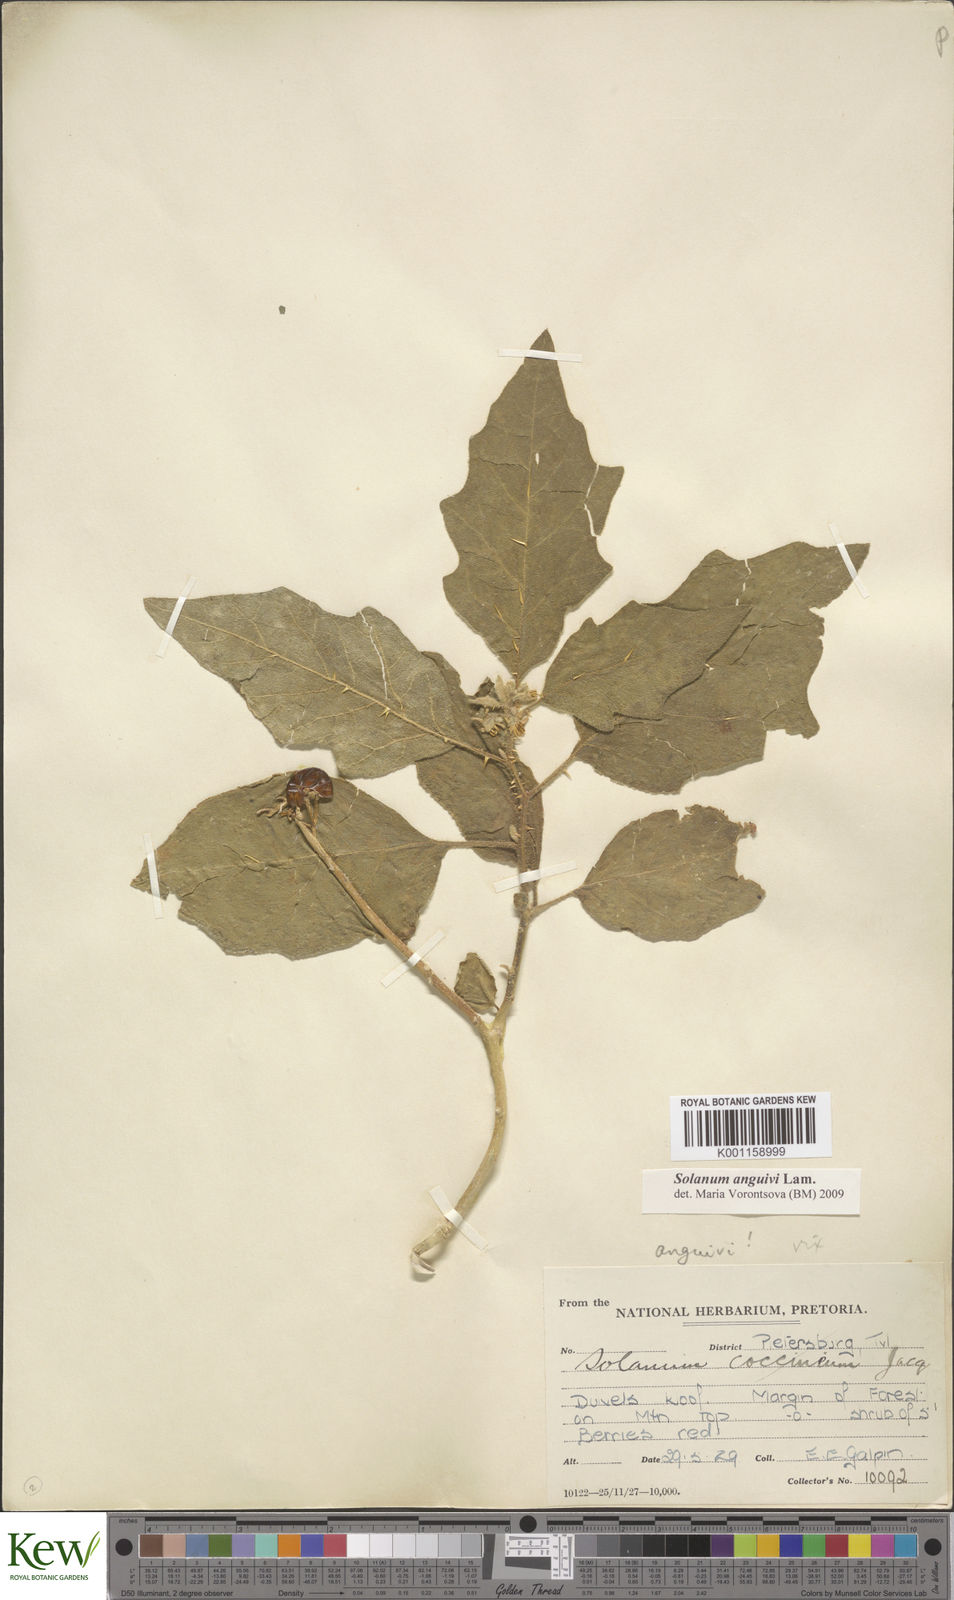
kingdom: Plantae
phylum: Tracheophyta
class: Magnoliopsida
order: Solanales
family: Solanaceae
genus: Solanum
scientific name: Solanum anguivi
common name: Forest bitterberry
